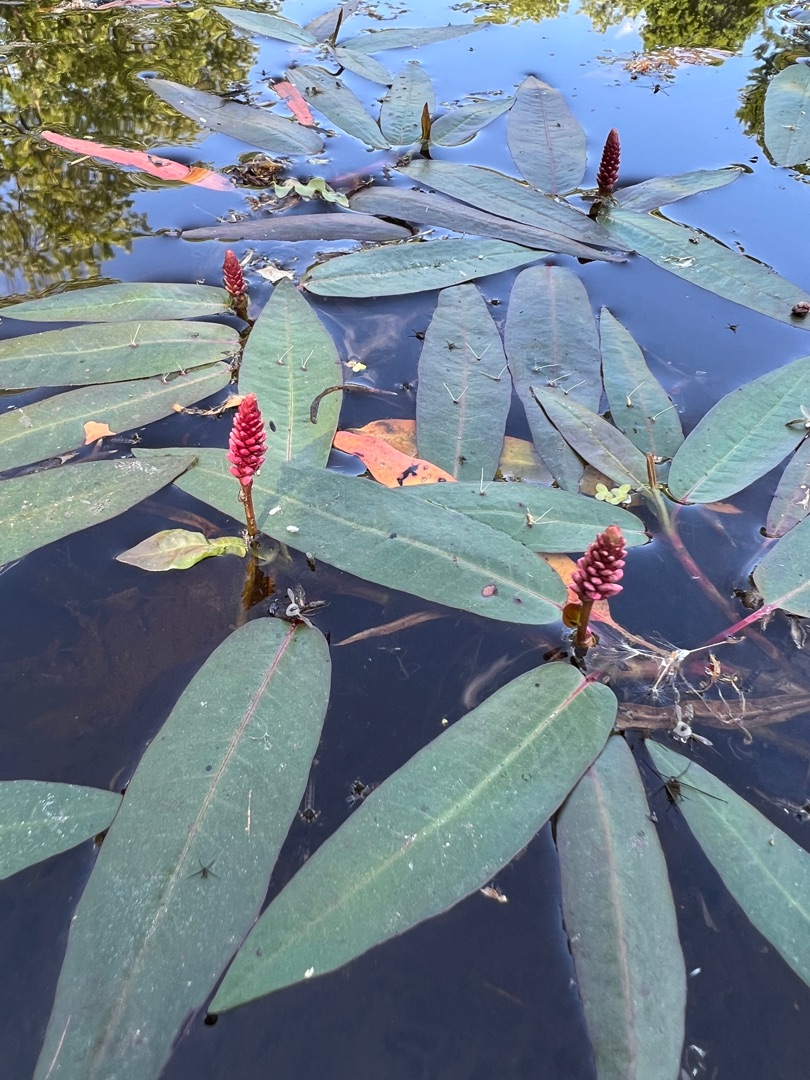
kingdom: Plantae
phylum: Tracheophyta
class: Magnoliopsida
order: Caryophyllales
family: Polygonaceae
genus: Persicaria
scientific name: Persicaria amphibia
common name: Vand-pileurt
